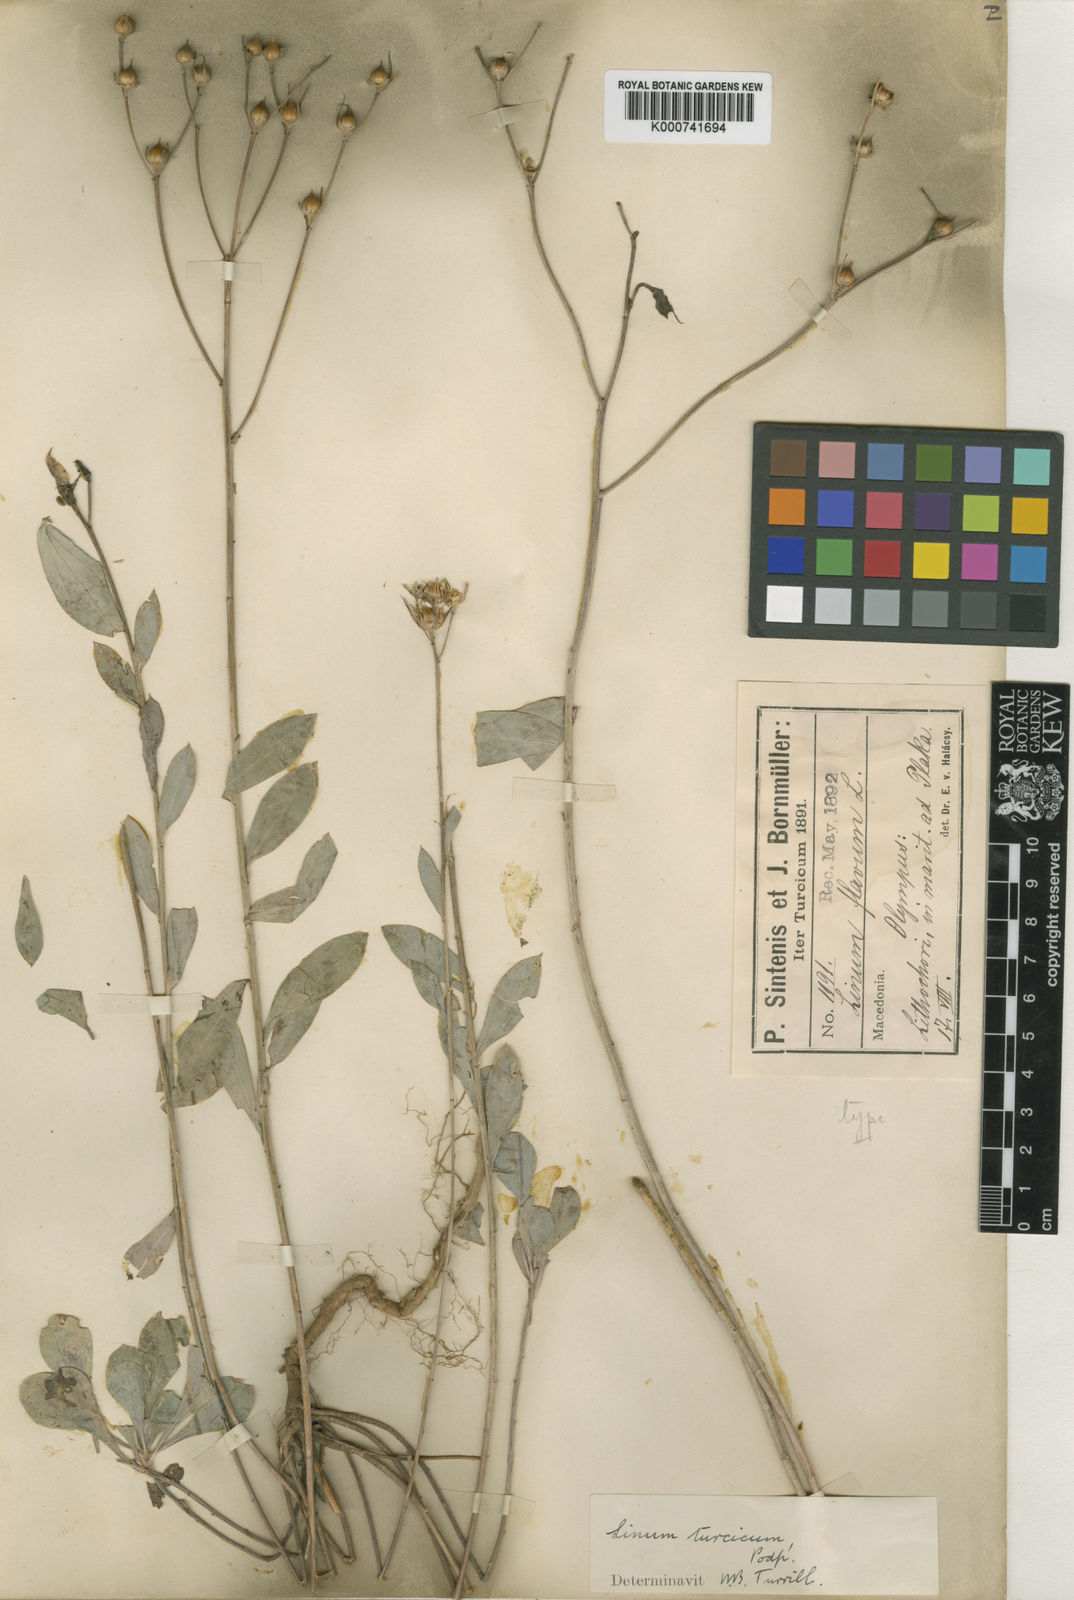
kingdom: Plantae
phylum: Tracheophyta
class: Magnoliopsida
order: Malpighiales
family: Linaceae
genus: Linum
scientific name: Linum thracicum
